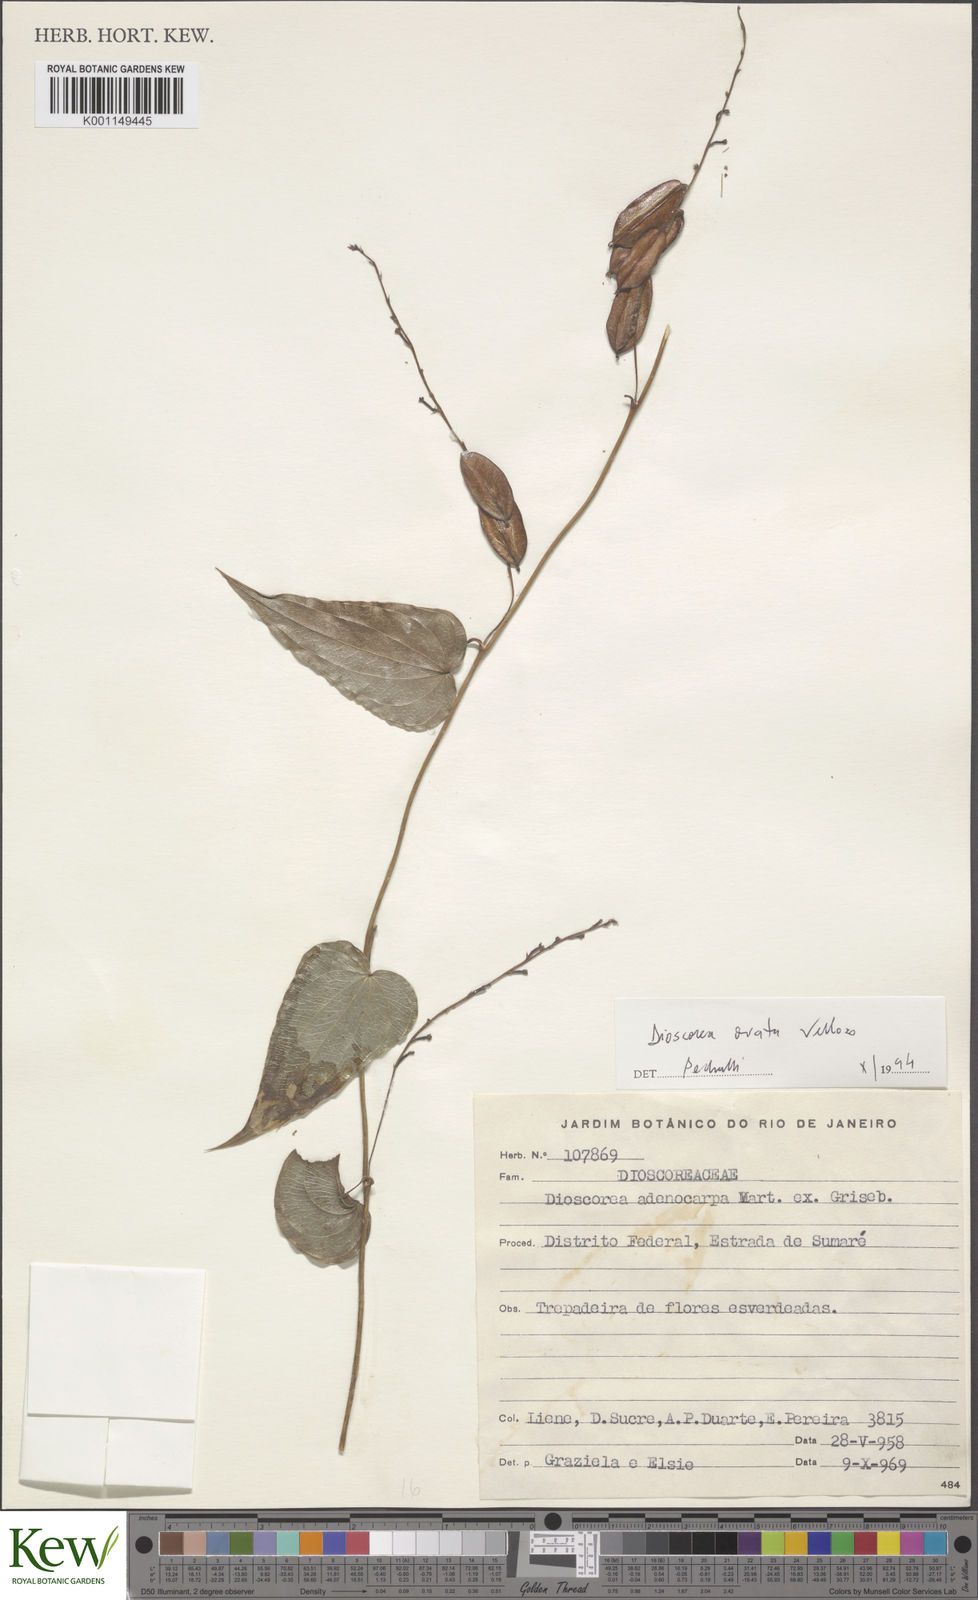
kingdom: Plantae
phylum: Tracheophyta
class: Liliopsida
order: Dioscoreales
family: Dioscoreaceae
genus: Dioscorea
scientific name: Dioscorea ovata
